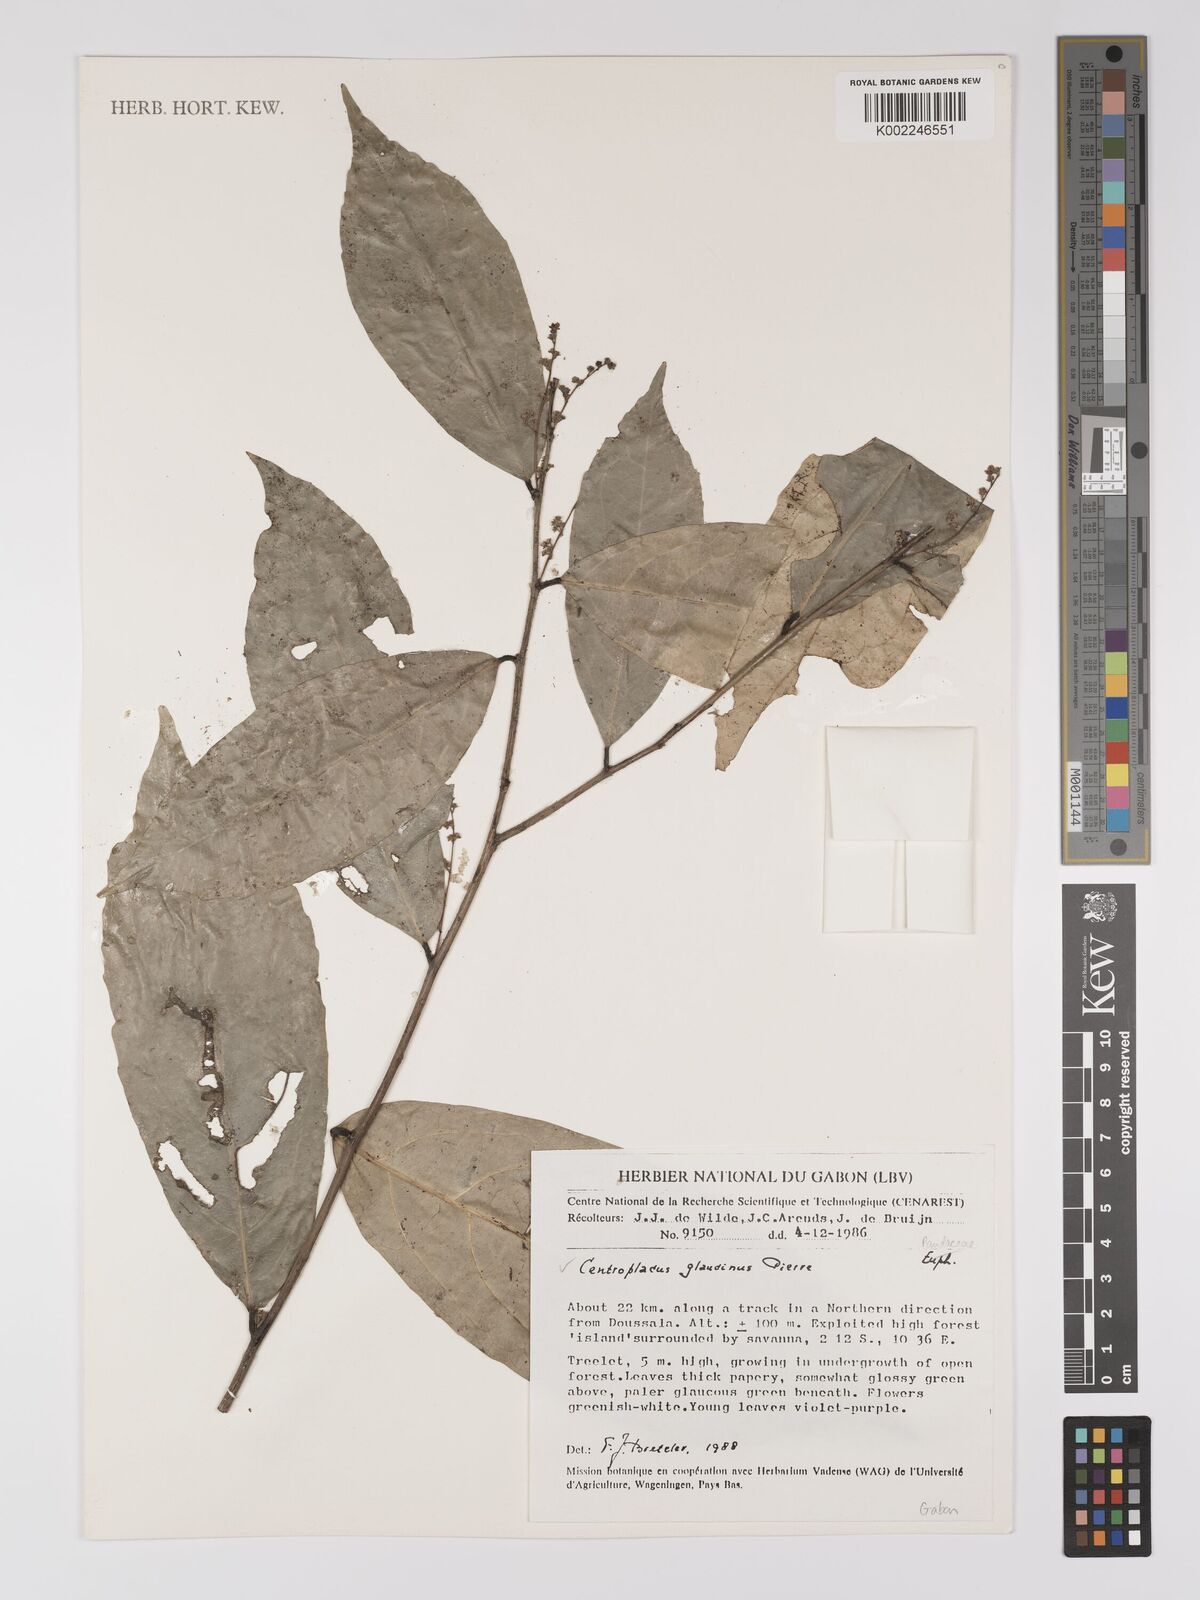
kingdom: Plantae
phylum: Tracheophyta
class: Magnoliopsida
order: Malpighiales
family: Centroplacaceae
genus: Centroplacus
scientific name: Centroplacus glaucinus
